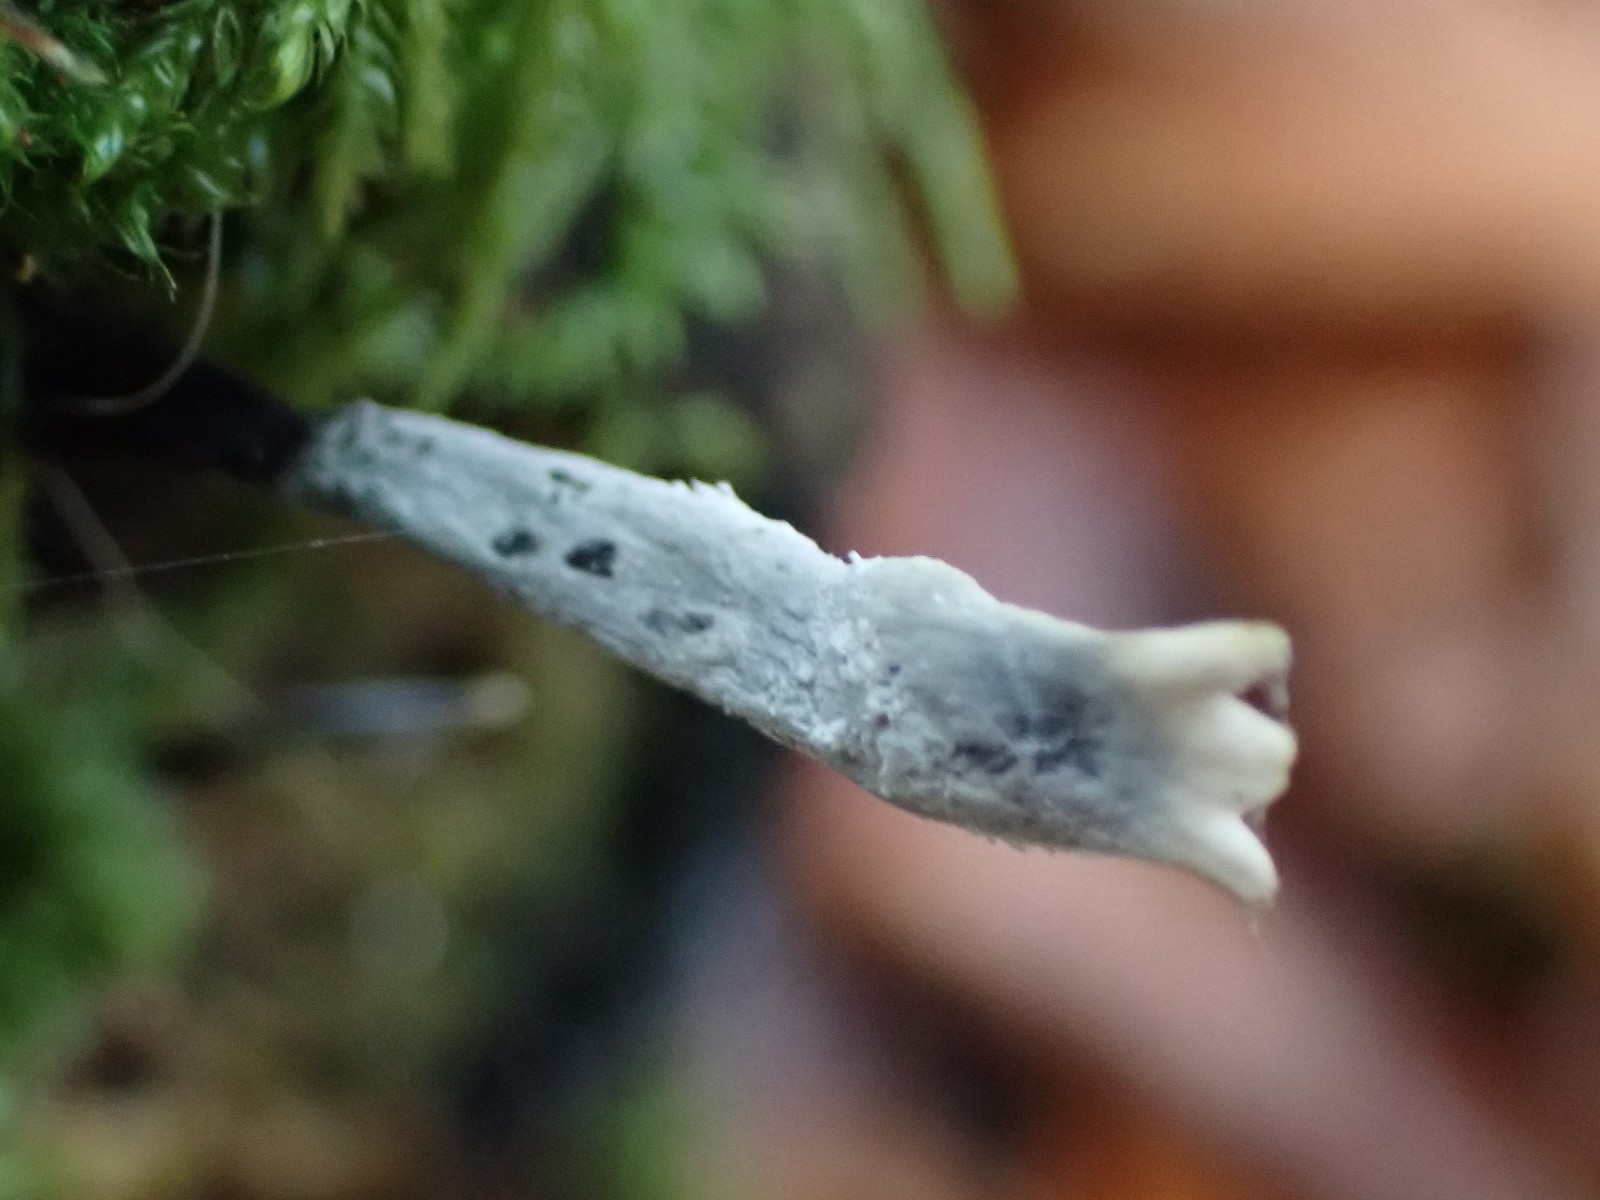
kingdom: Fungi
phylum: Ascomycota
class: Sordariomycetes
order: Xylariales
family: Xylariaceae
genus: Xylaria
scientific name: Xylaria hypoxylon
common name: grenet stødsvamp
